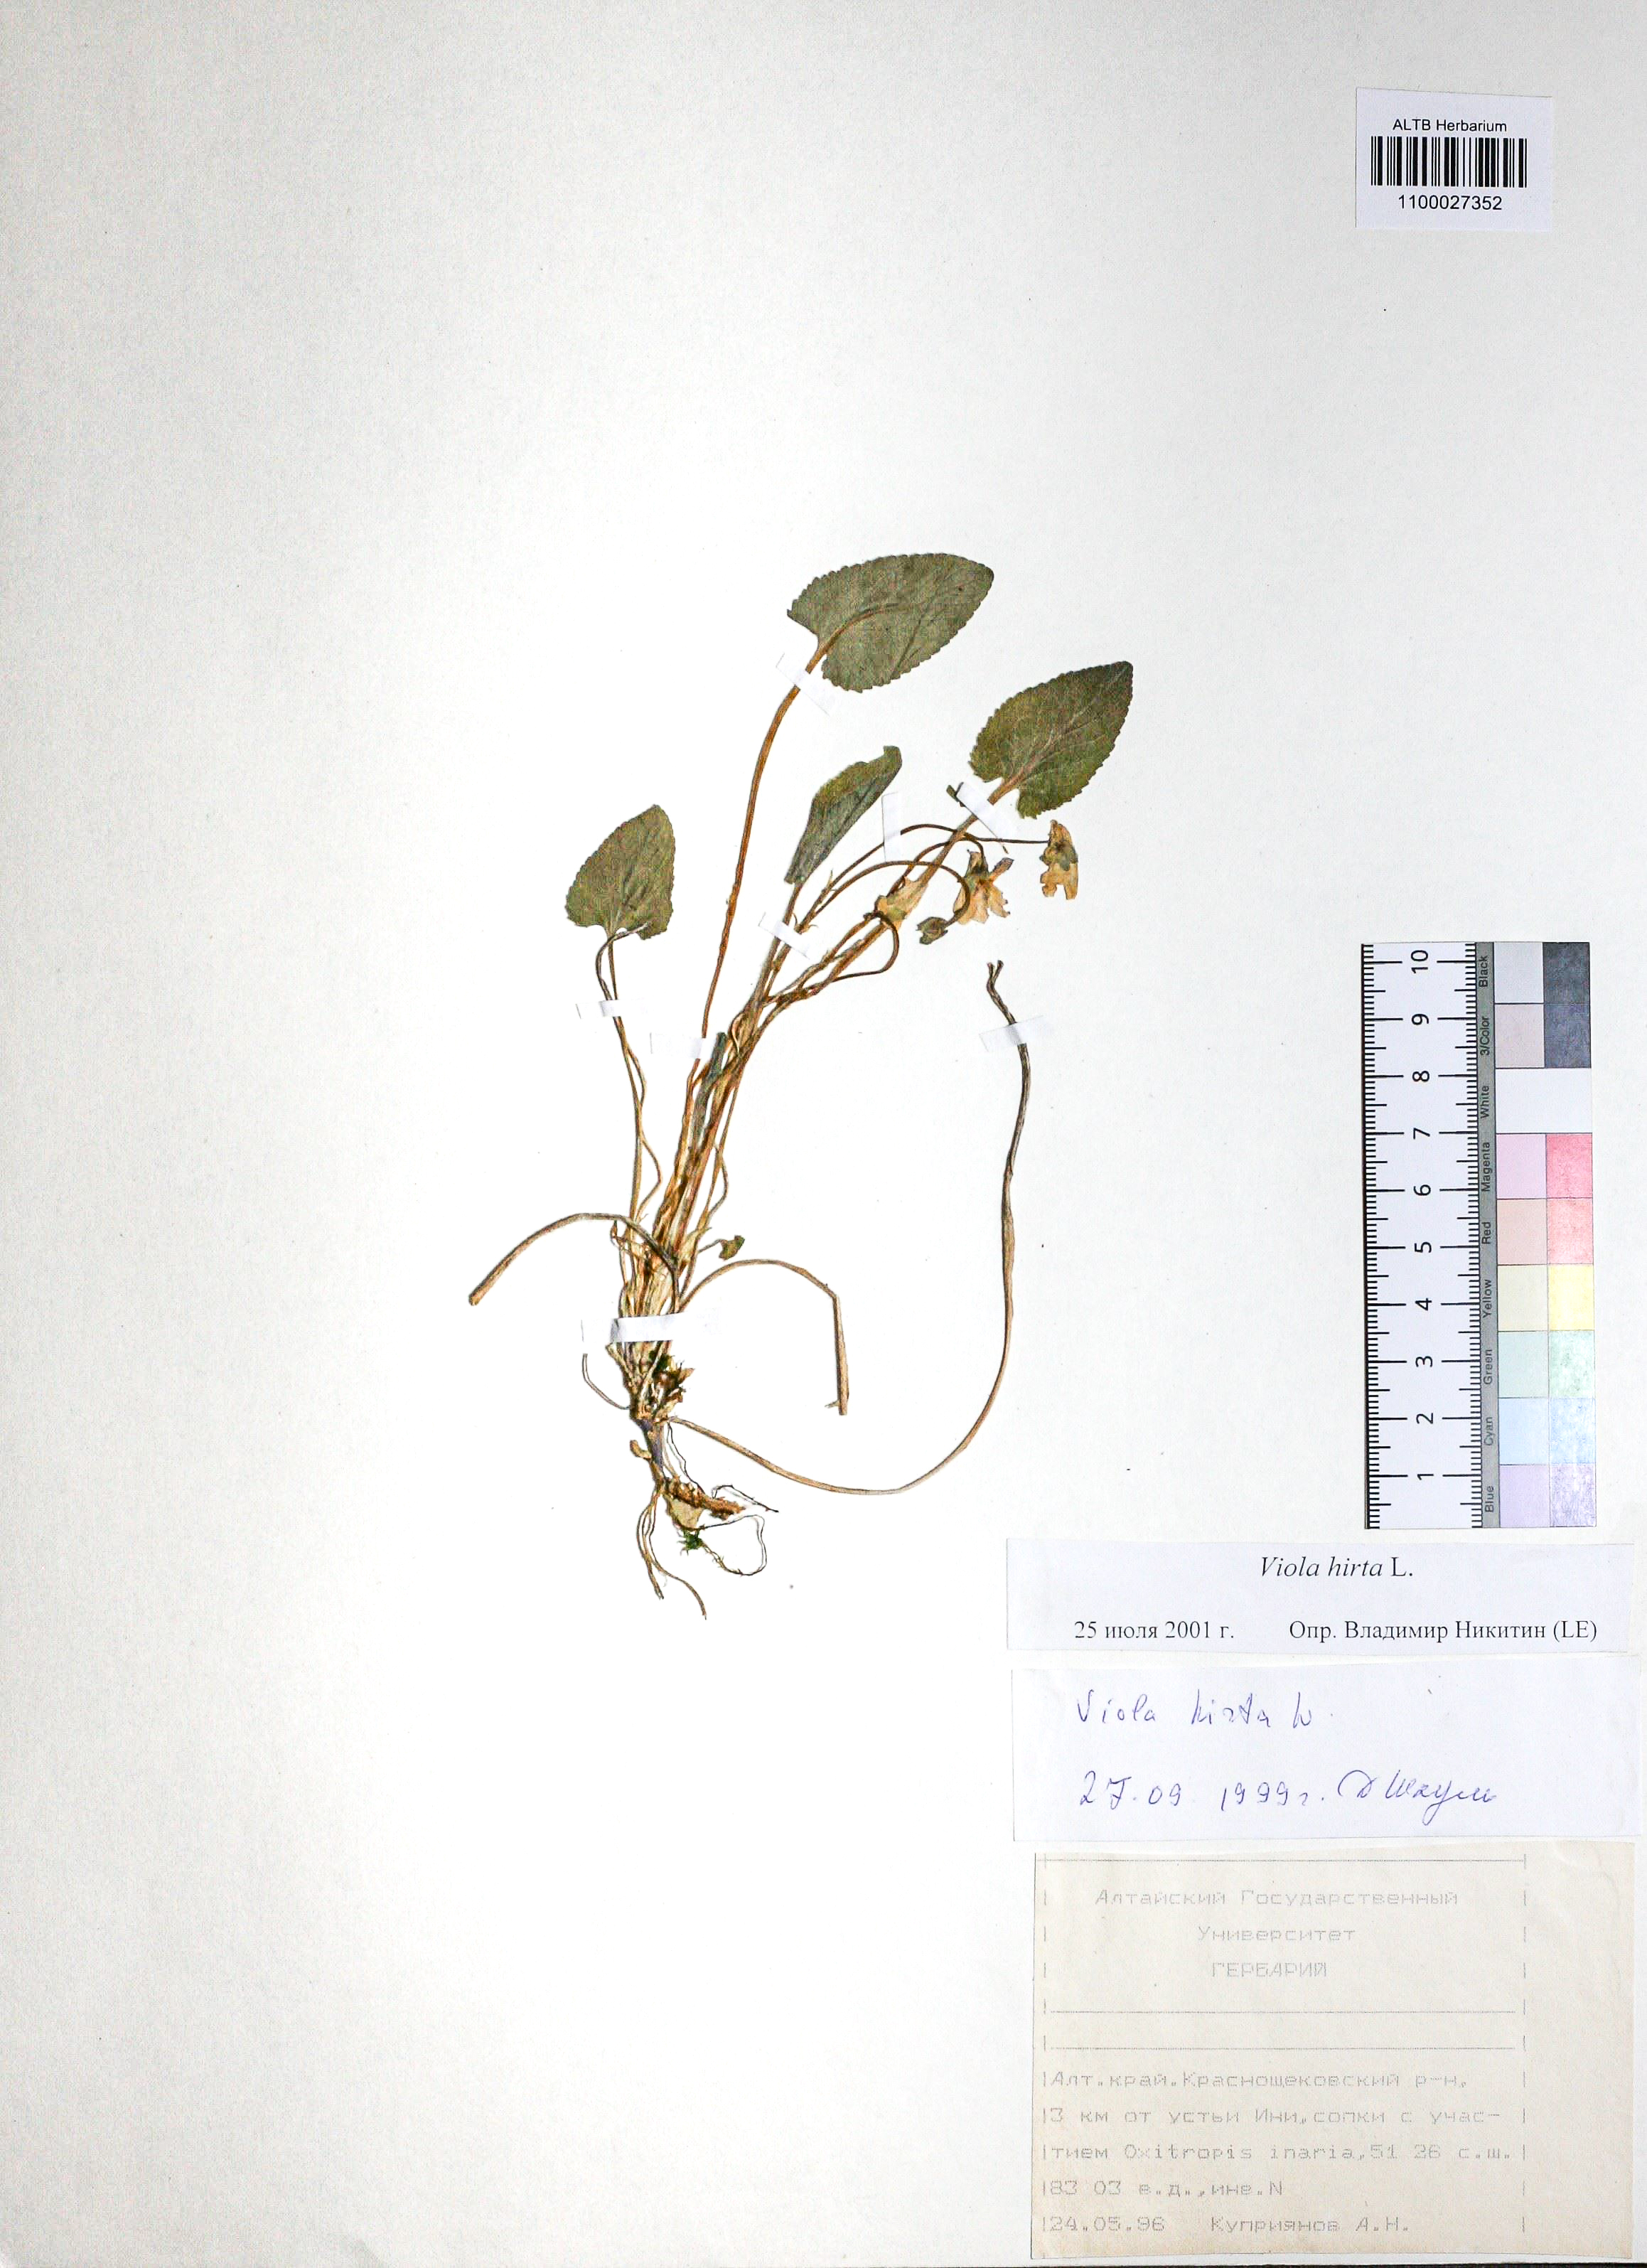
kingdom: Plantae
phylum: Tracheophyta
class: Magnoliopsida
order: Malpighiales
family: Violaceae
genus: Viola
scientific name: Viola hirta
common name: Hairy violet
